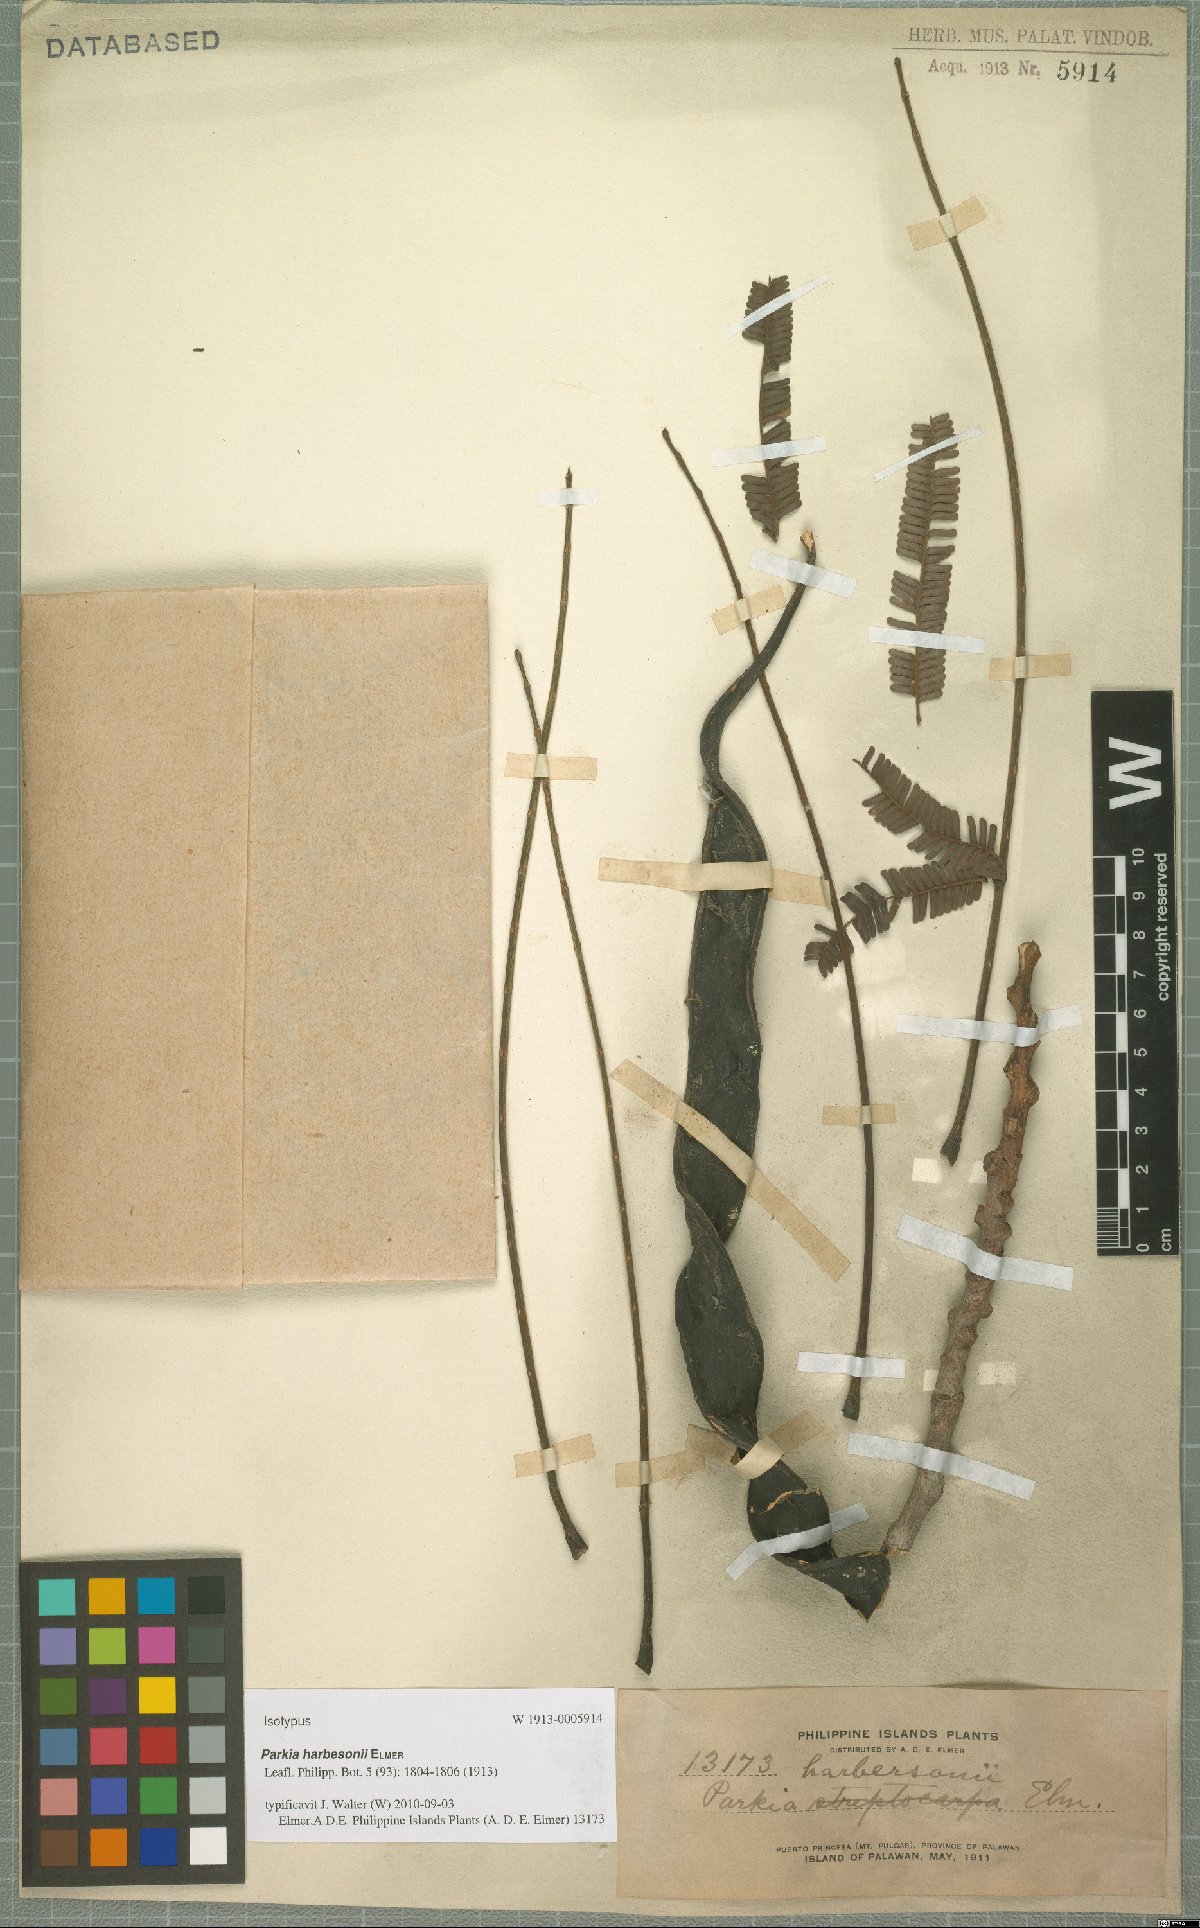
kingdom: Plantae
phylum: Tracheophyta
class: Magnoliopsida
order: Fabales
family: Fabaceae
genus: Parkia
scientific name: Parkia speciosa
